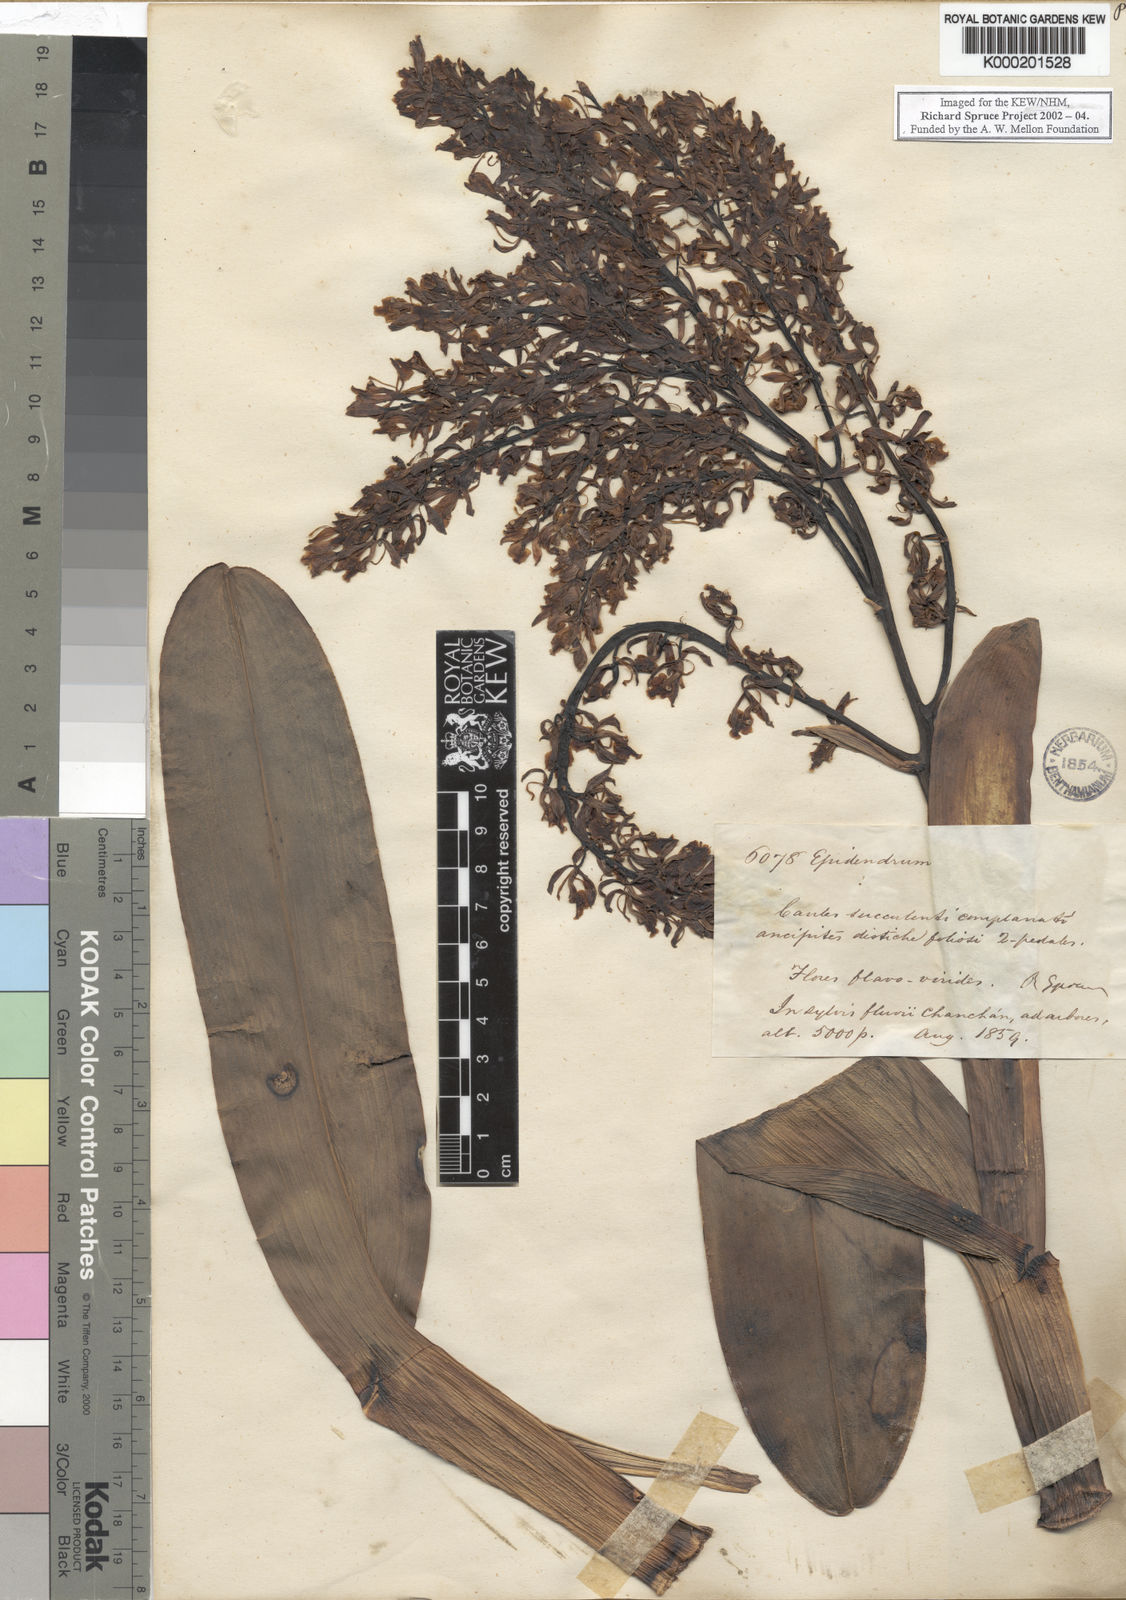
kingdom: Plantae
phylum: Tracheophyta
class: Liliopsida
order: Asparagales
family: Orchidaceae
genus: Epidendrum
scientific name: Epidendrum
